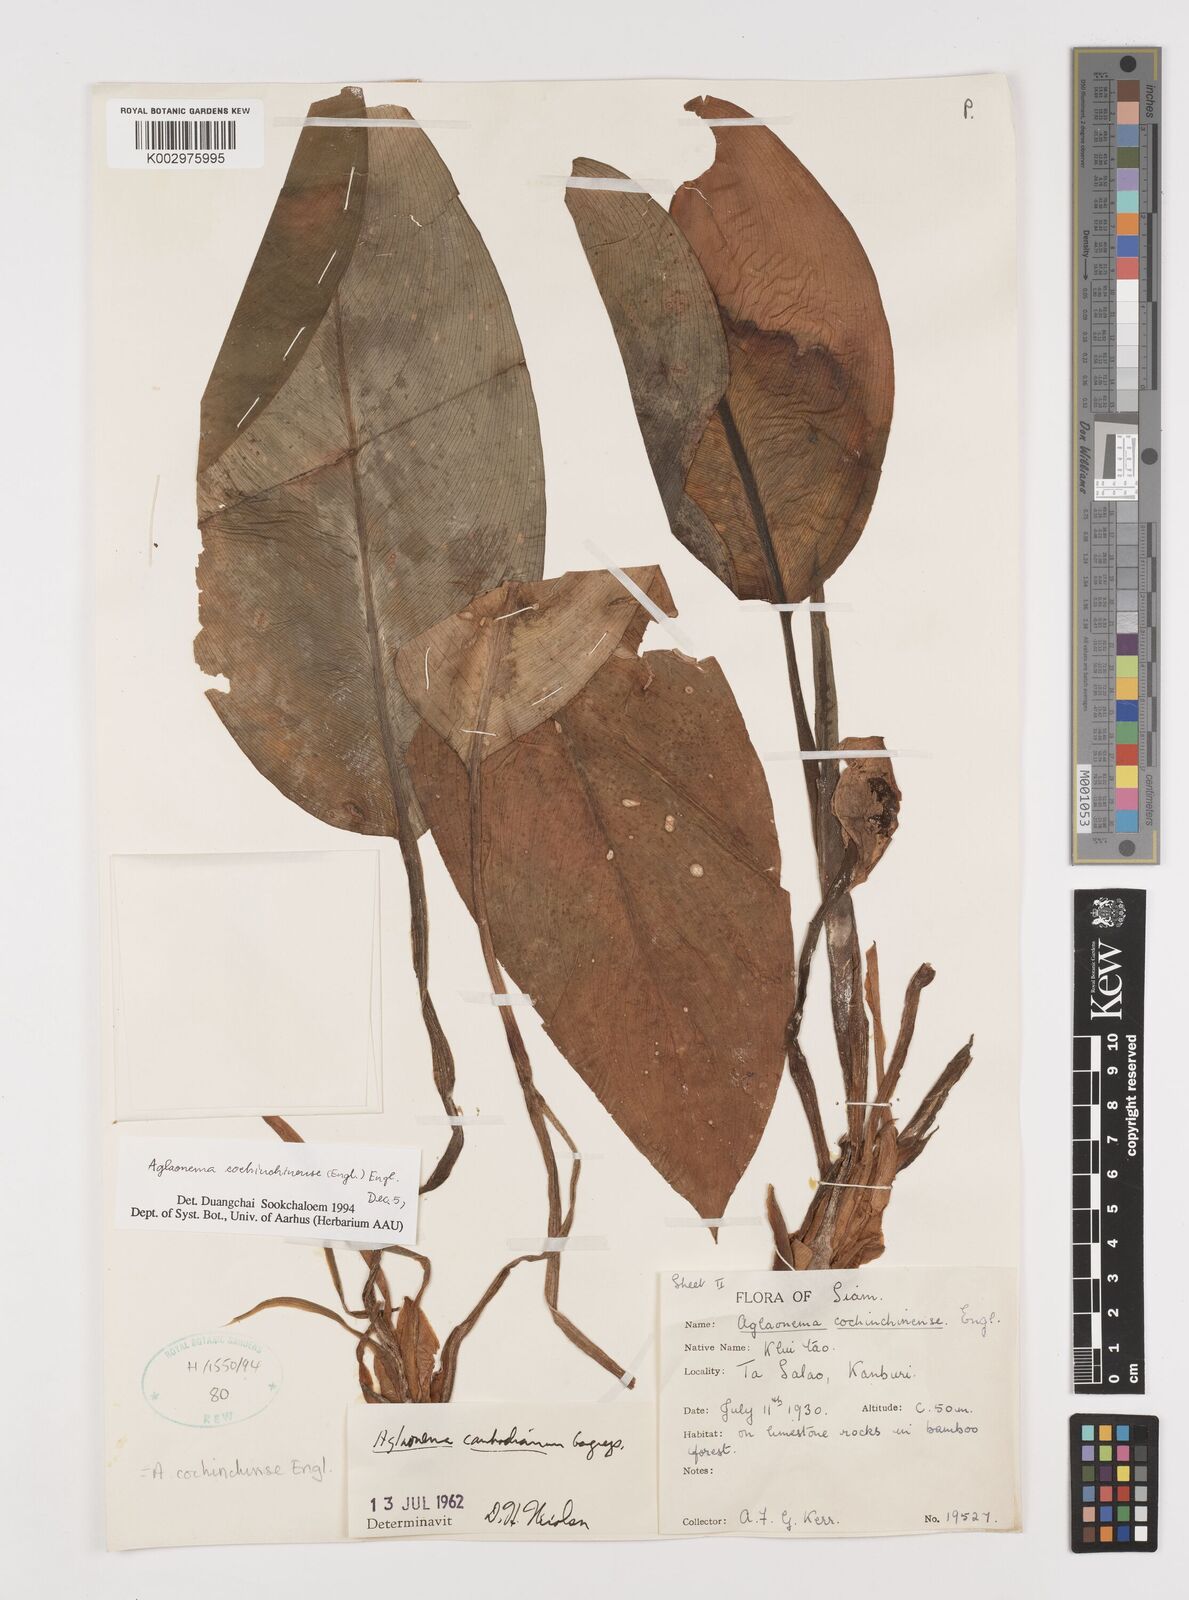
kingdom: Plantae
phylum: Tracheophyta
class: Liliopsida
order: Alismatales
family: Araceae
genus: Aglaonema
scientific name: Aglaonema cochinchinense
